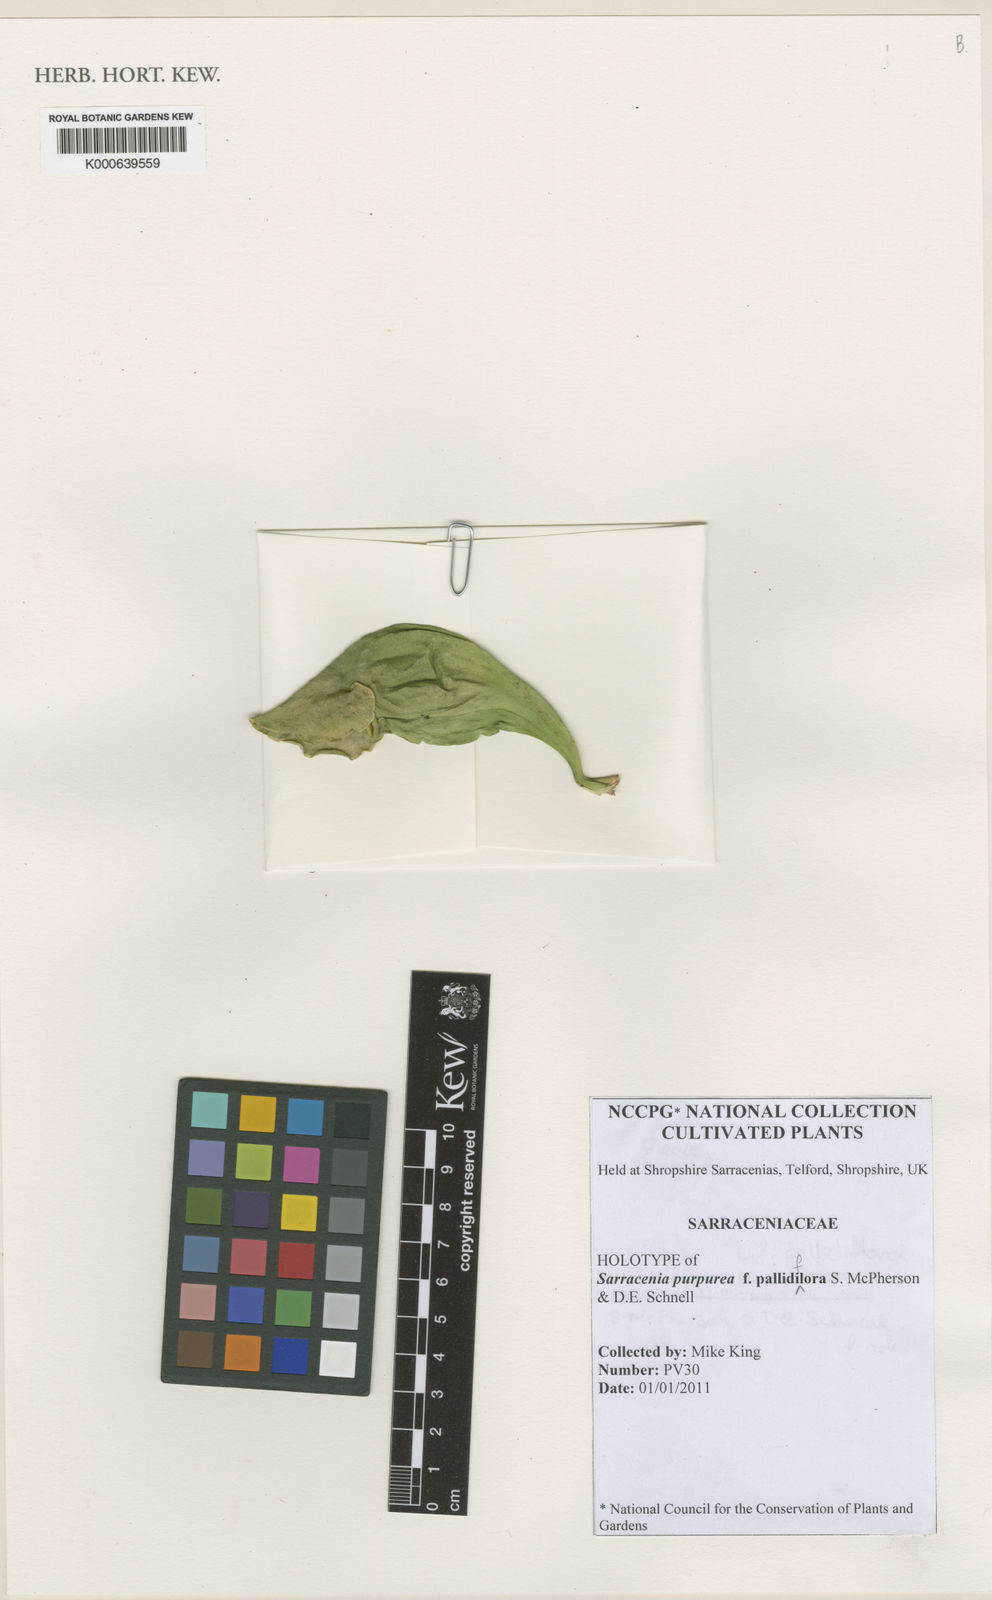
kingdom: Plantae
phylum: Tracheophyta
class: Magnoliopsida
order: Ericales
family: Sarraceniaceae
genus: Sarracenia
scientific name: Sarracenia purpurea
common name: Pitcherplant
